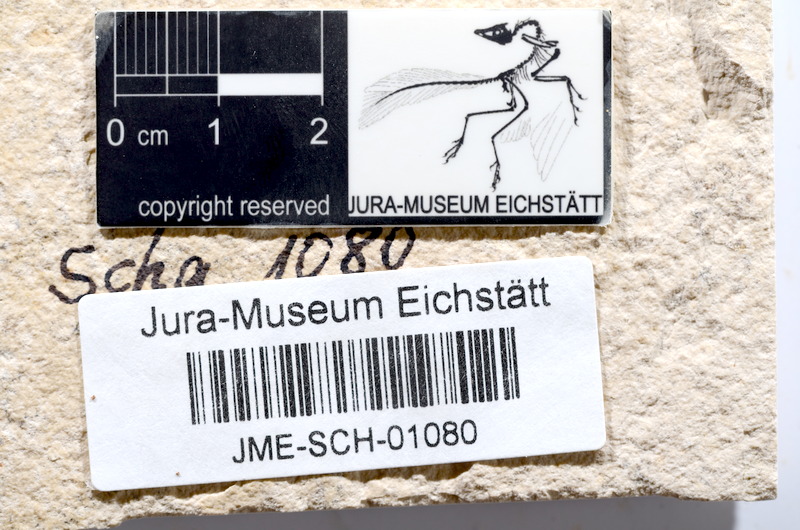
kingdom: Animalia
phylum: Chordata
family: Ascalaboidae
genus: Tharsis
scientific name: Tharsis dubius
